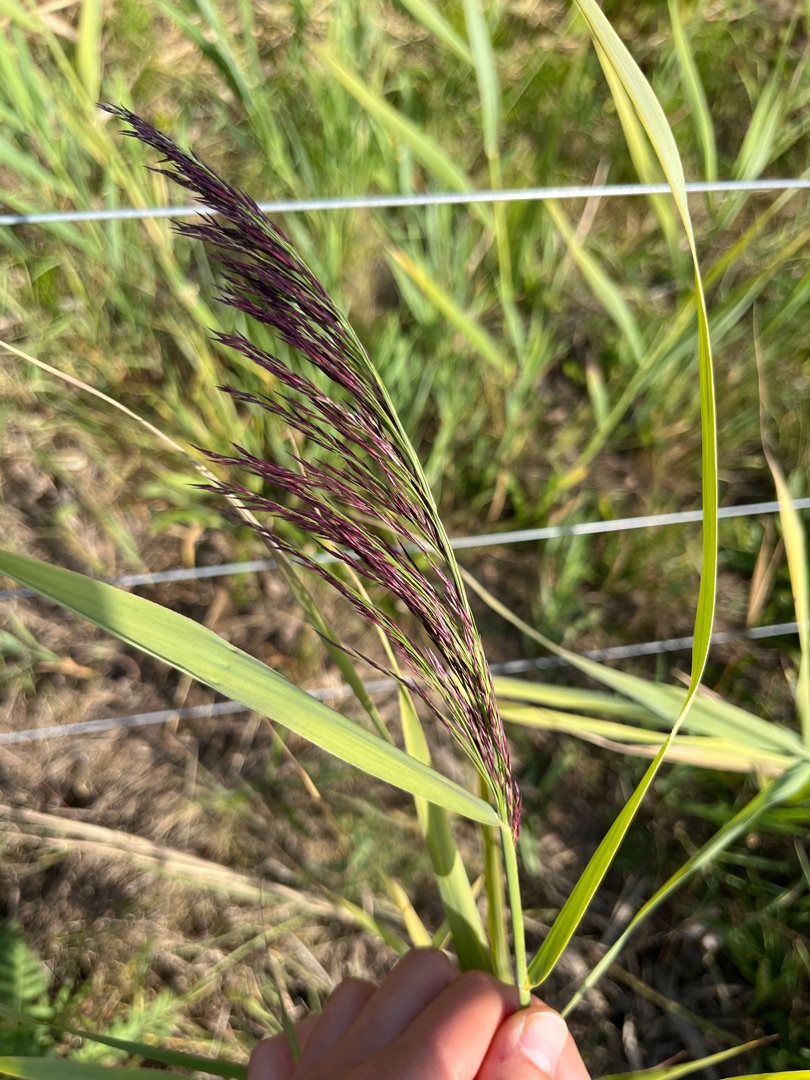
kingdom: Plantae
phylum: Tracheophyta
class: Liliopsida
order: Poales
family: Poaceae
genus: Phragmites
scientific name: Phragmites australis
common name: Tagrør
